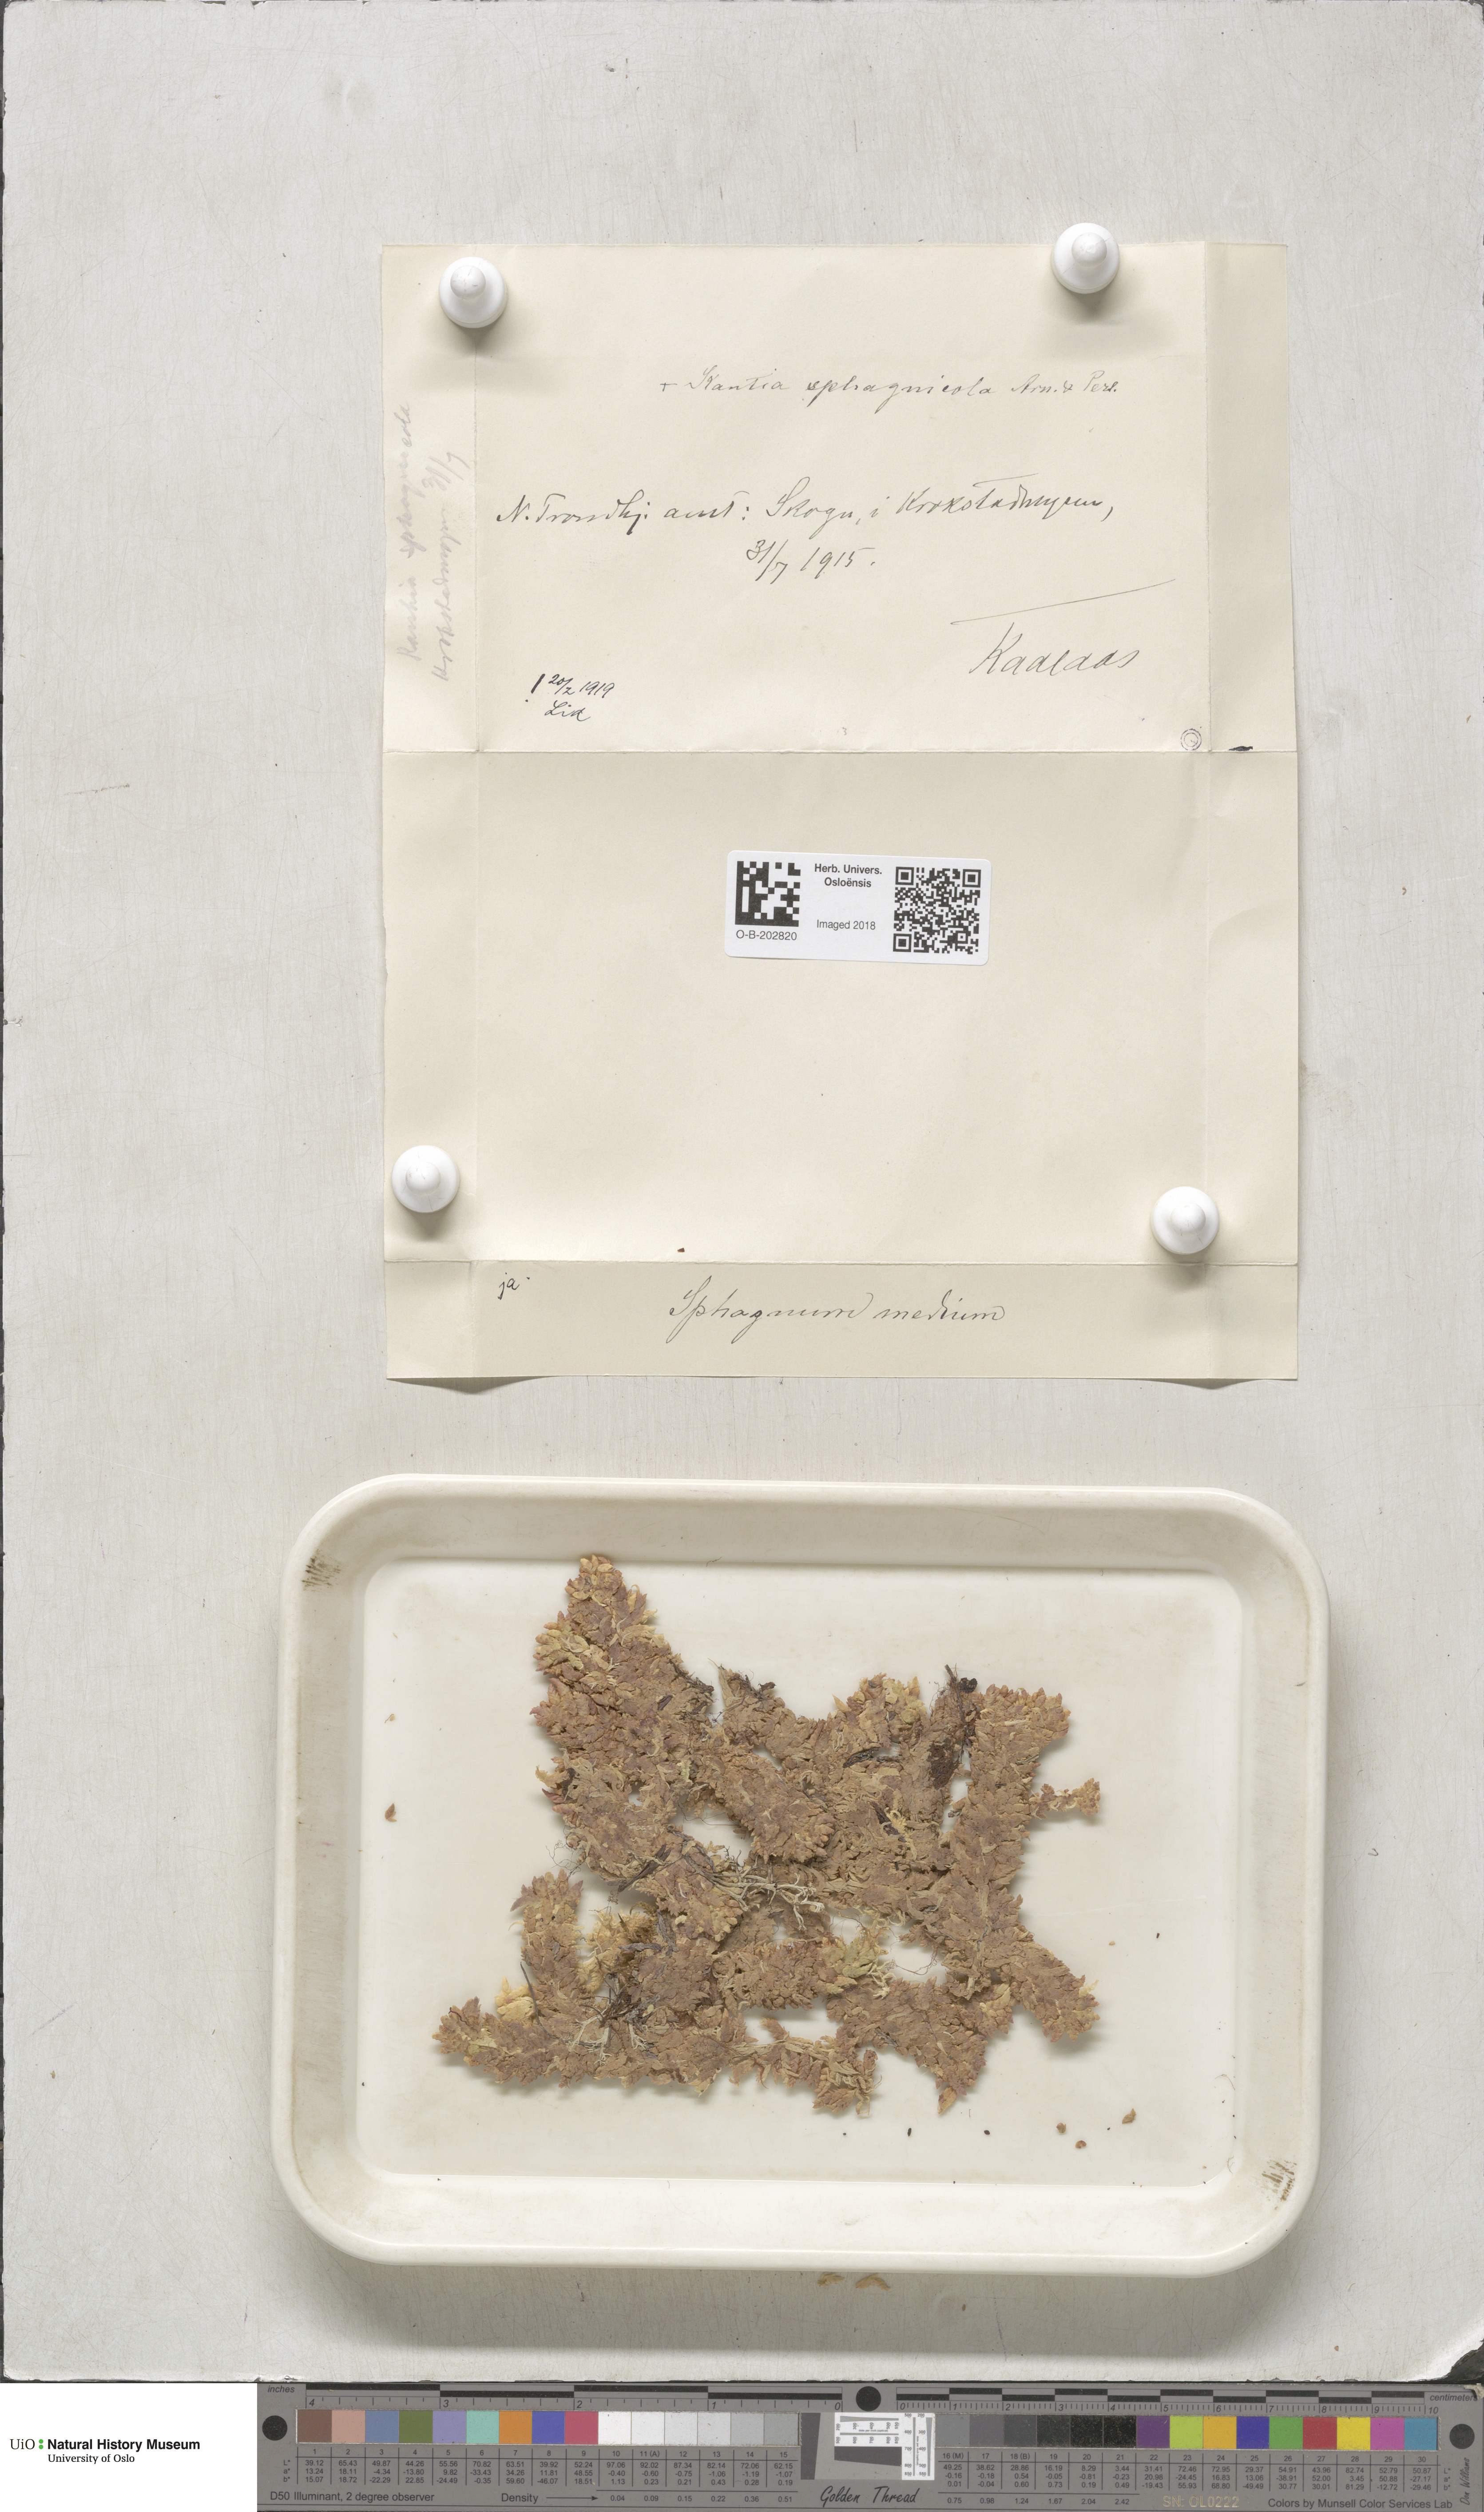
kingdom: Plantae
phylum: Bryophyta
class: Sphagnopsida
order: Sphagnales
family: Sphagnaceae
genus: Sphagnum
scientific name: Sphagnum magellanicum
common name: Magellan's peat moss
